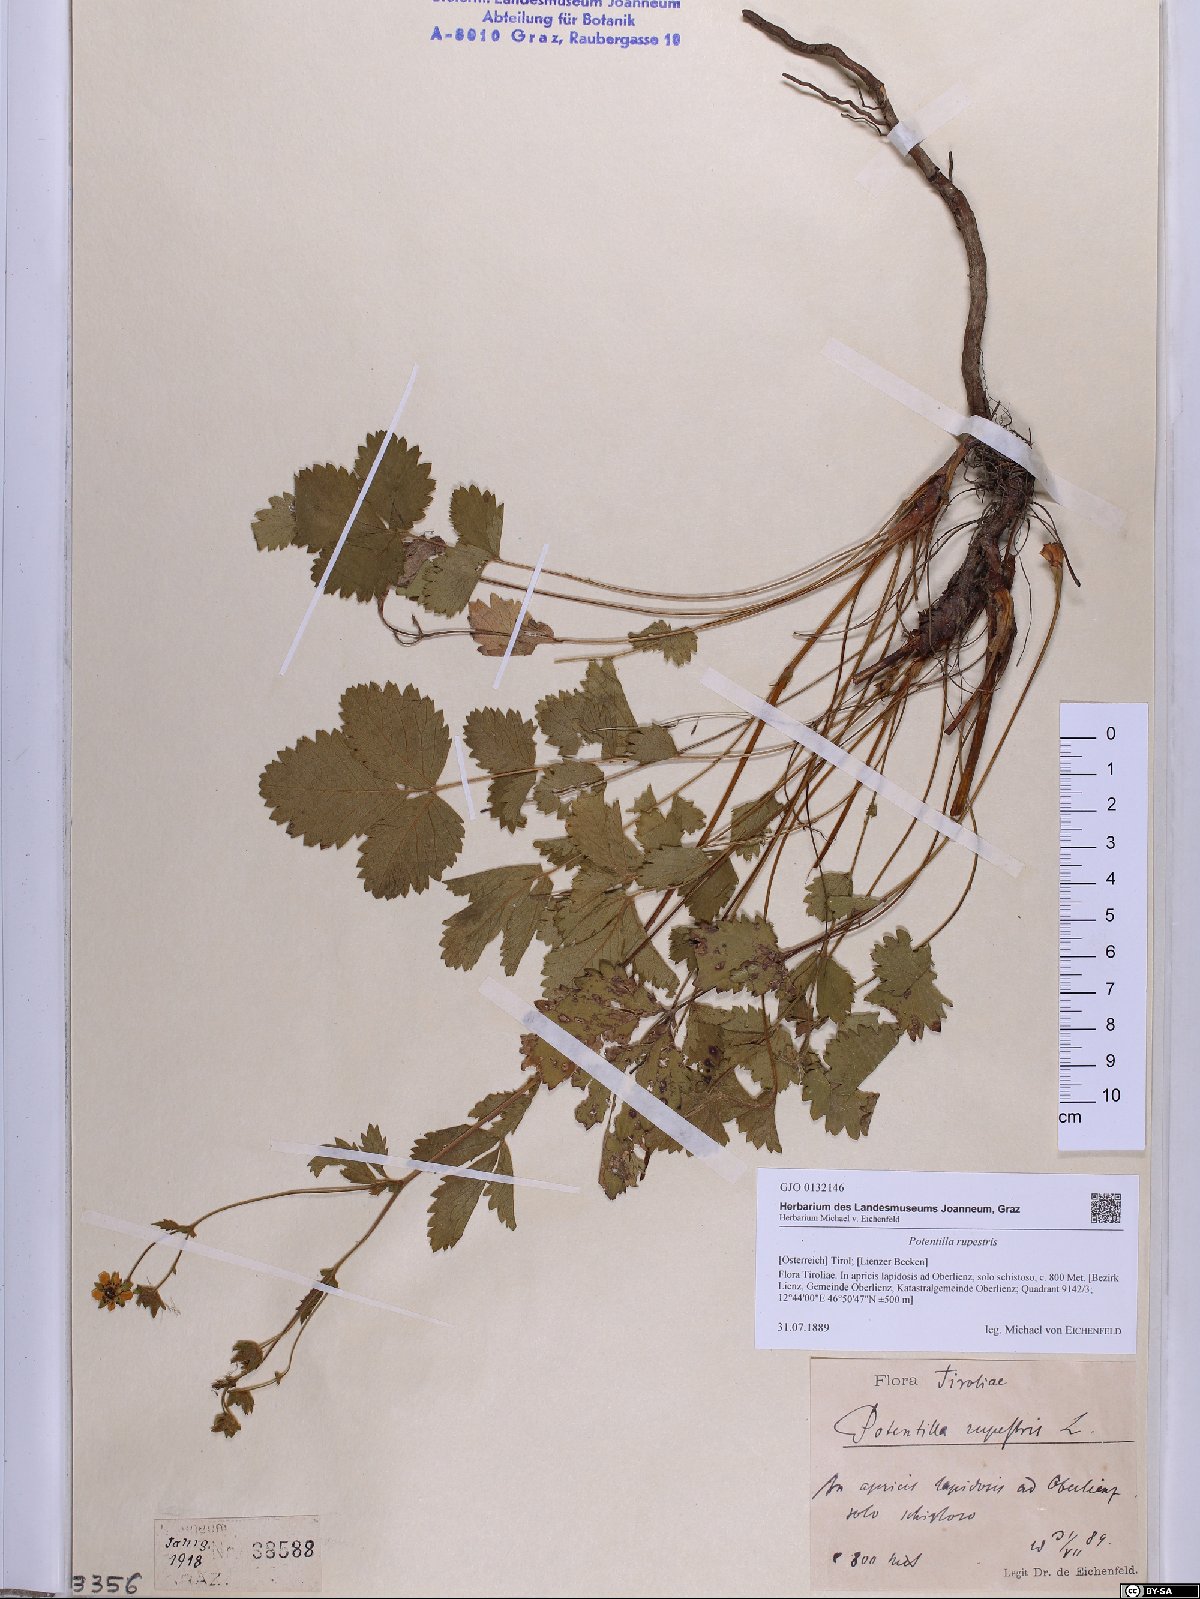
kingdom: Plantae
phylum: Tracheophyta
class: Magnoliopsida
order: Rosales
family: Rosaceae
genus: Drymocallis
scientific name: Drymocallis rupestris
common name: Rock cinquefoil
